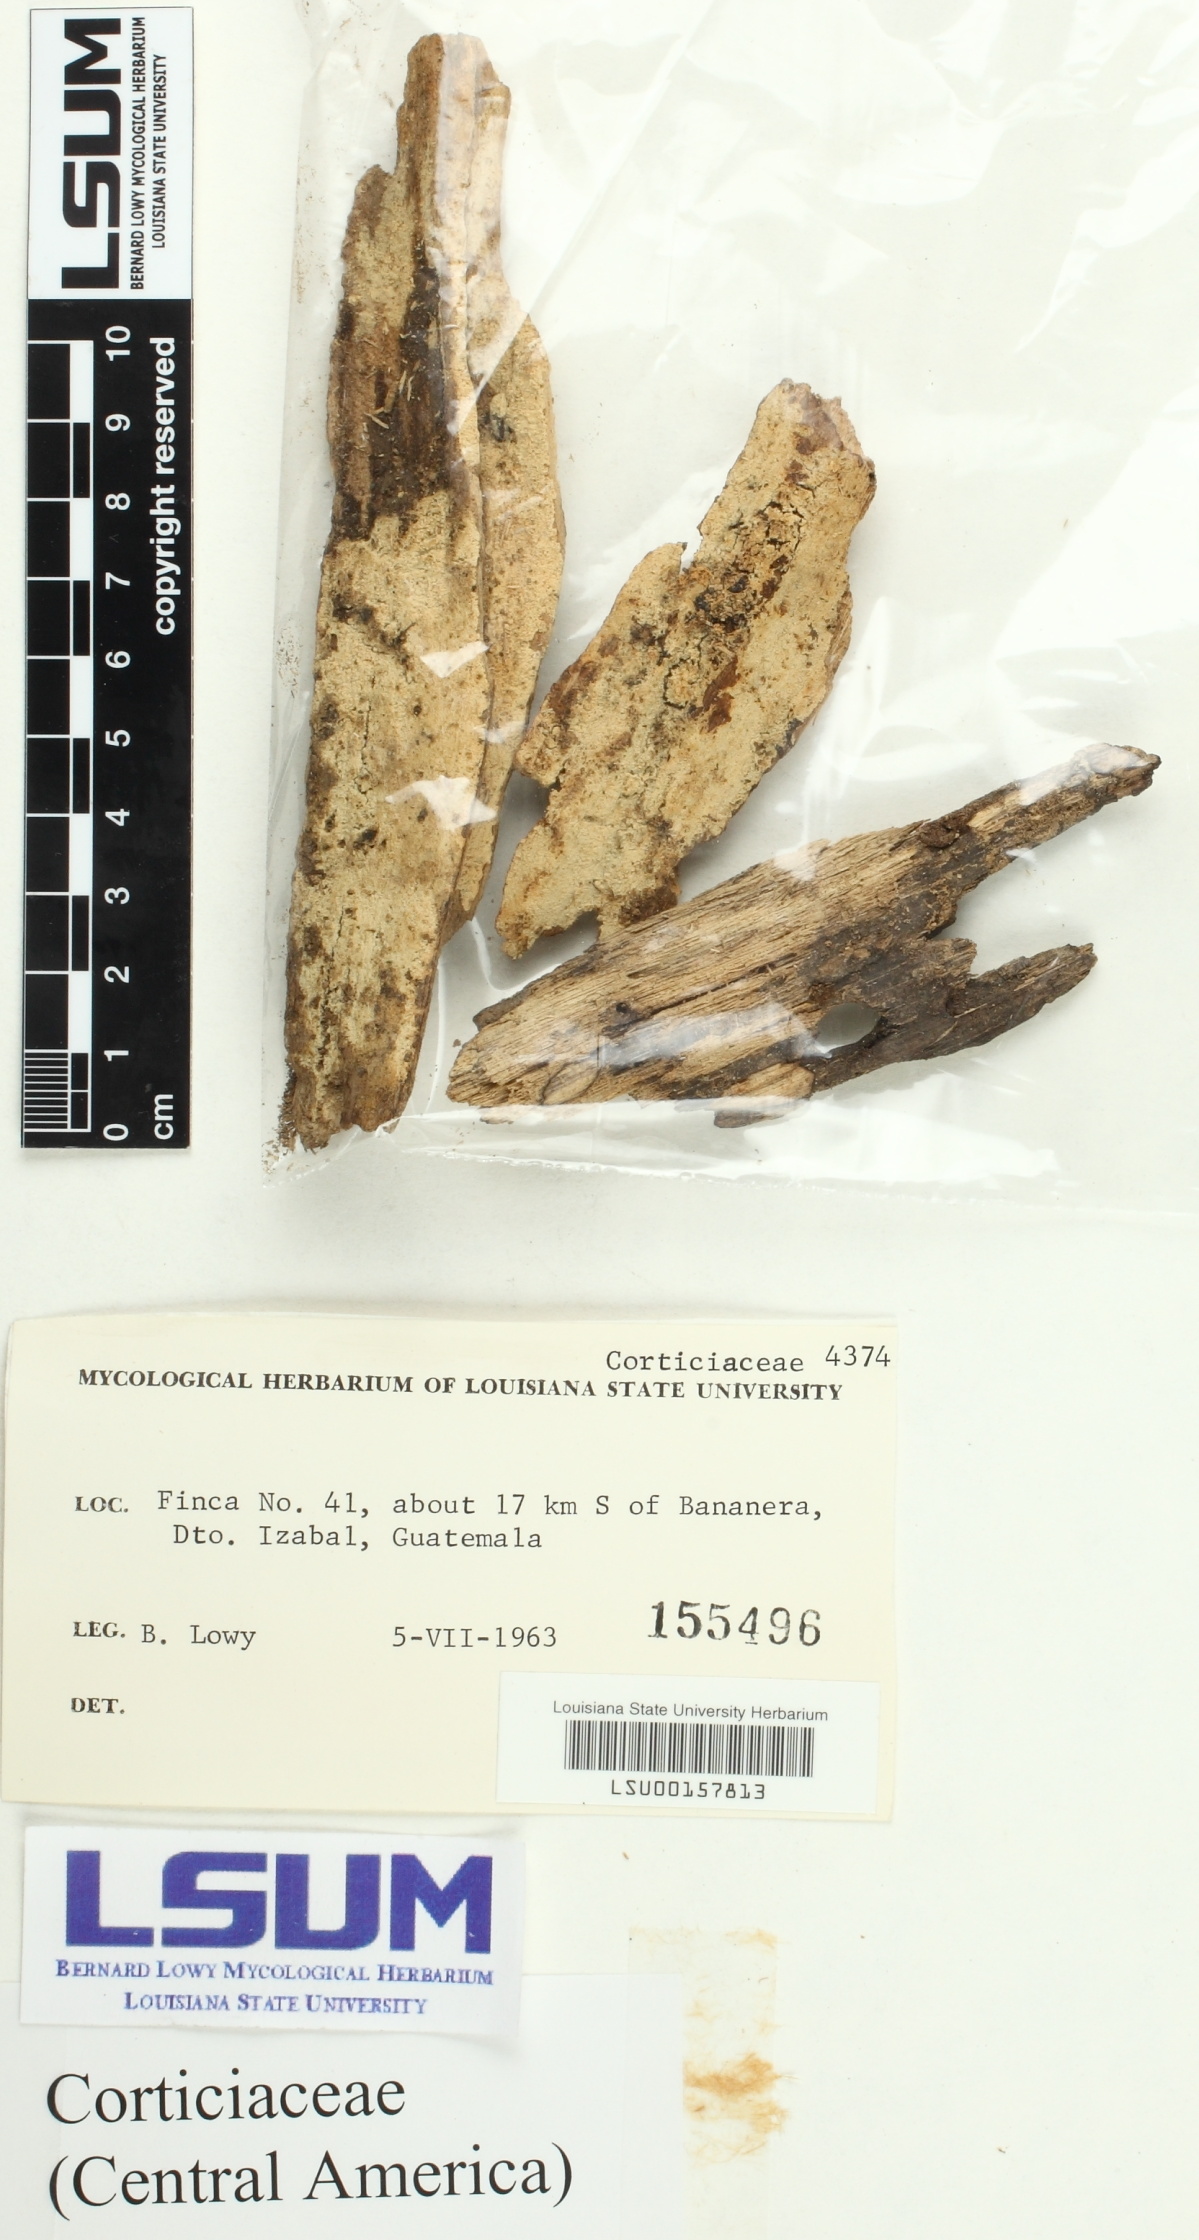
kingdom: Fungi
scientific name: Fungi
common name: Fungi
